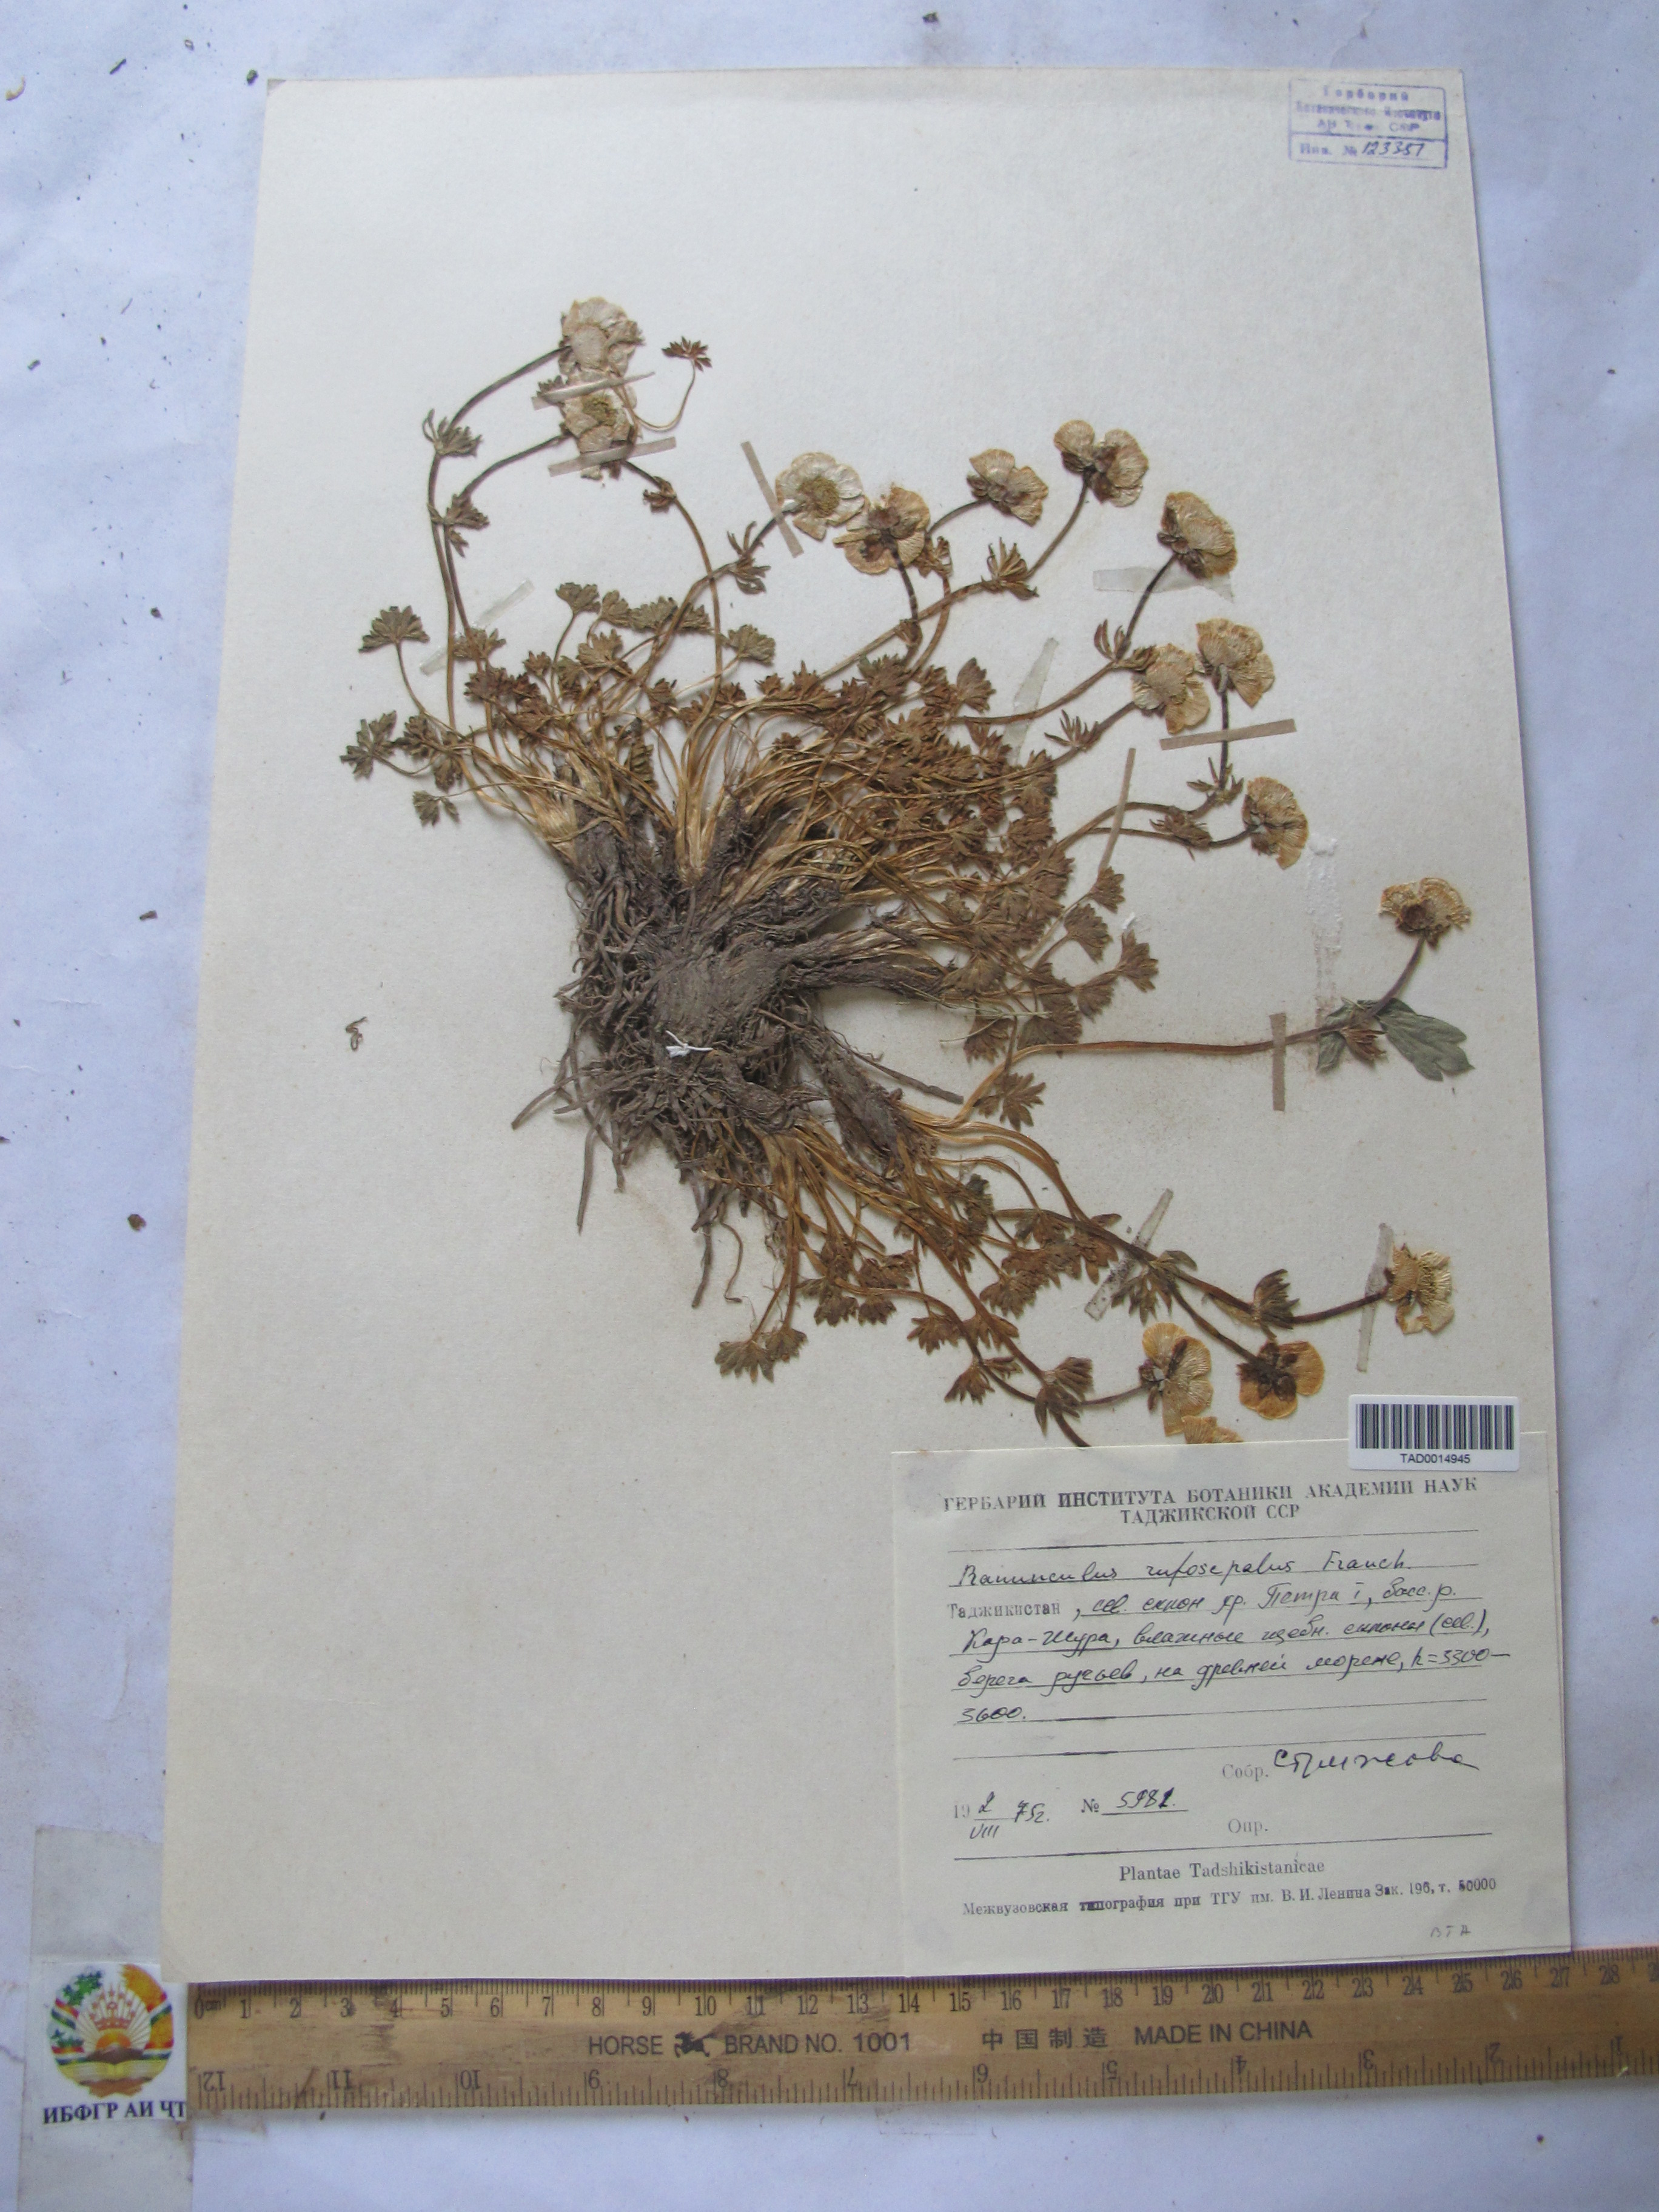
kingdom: Plantae
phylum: Tracheophyta
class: Magnoliopsida
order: Ranunculales
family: Ranunculaceae
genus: Ranunculus
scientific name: Ranunculus rufosepalus
